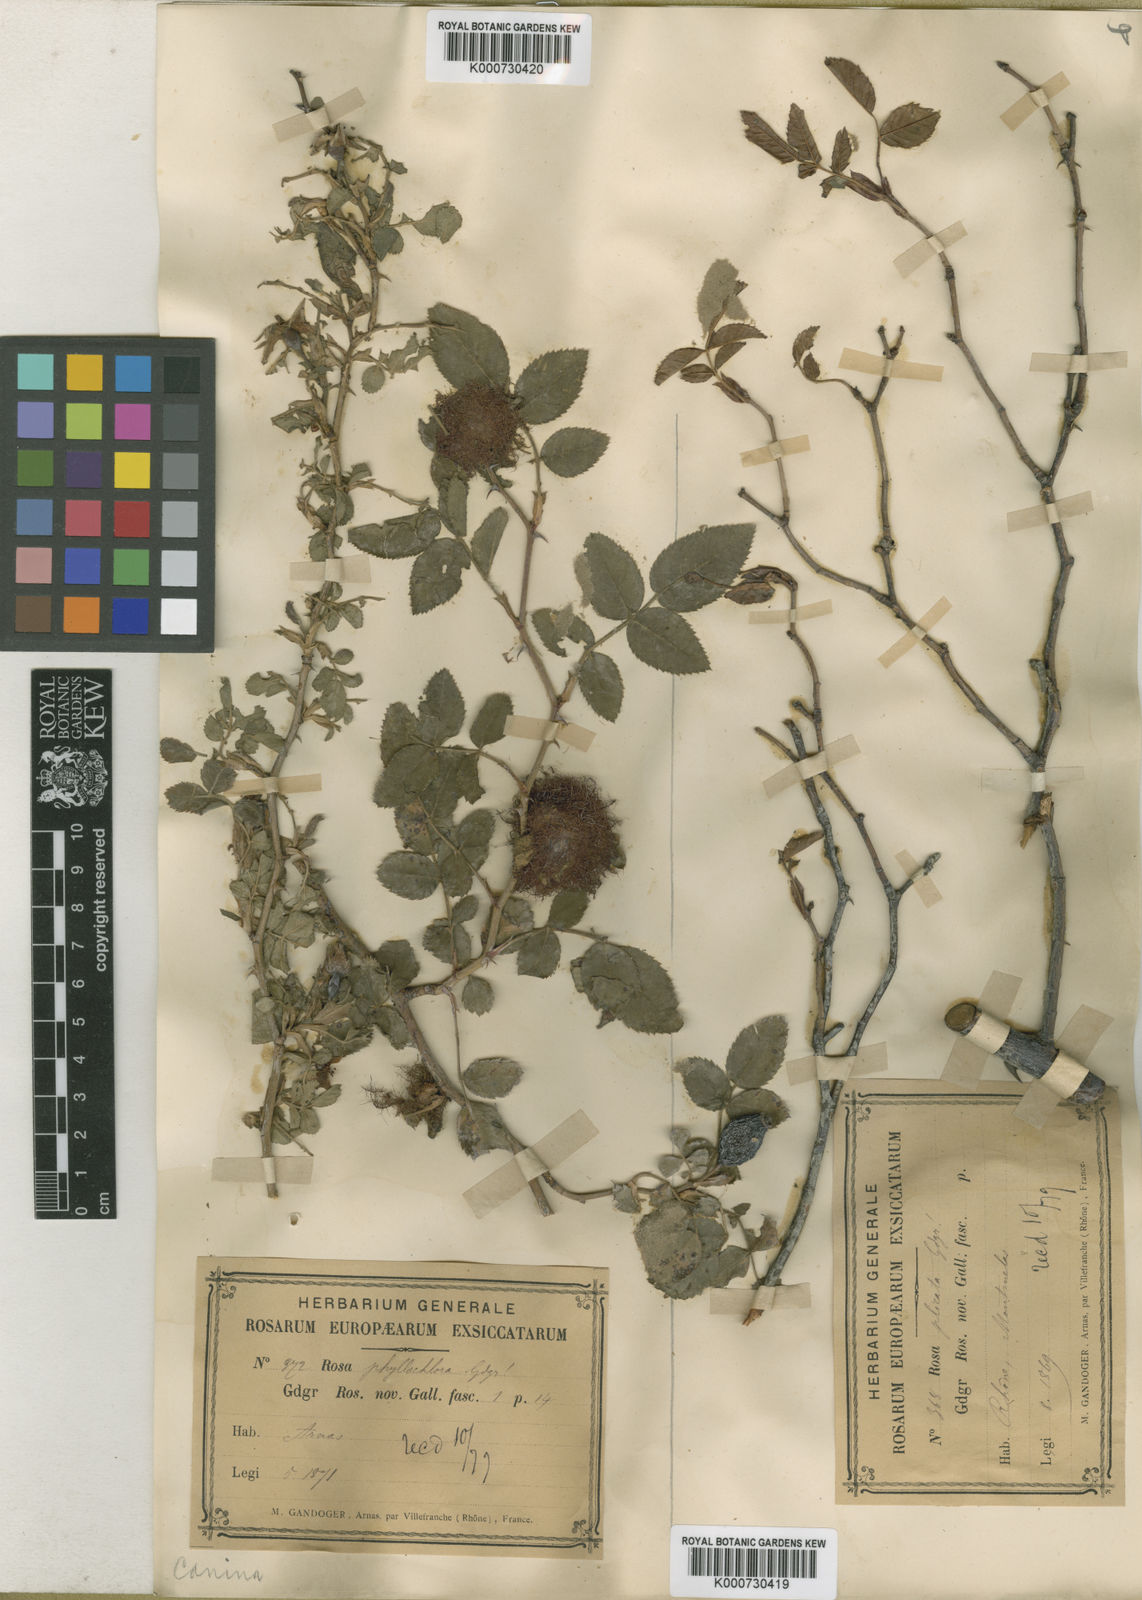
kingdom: Plantae
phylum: Tracheophyta
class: Magnoliopsida
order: Rosales
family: Rosaceae
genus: Rosa
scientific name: Rosa canina
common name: Dog rose
